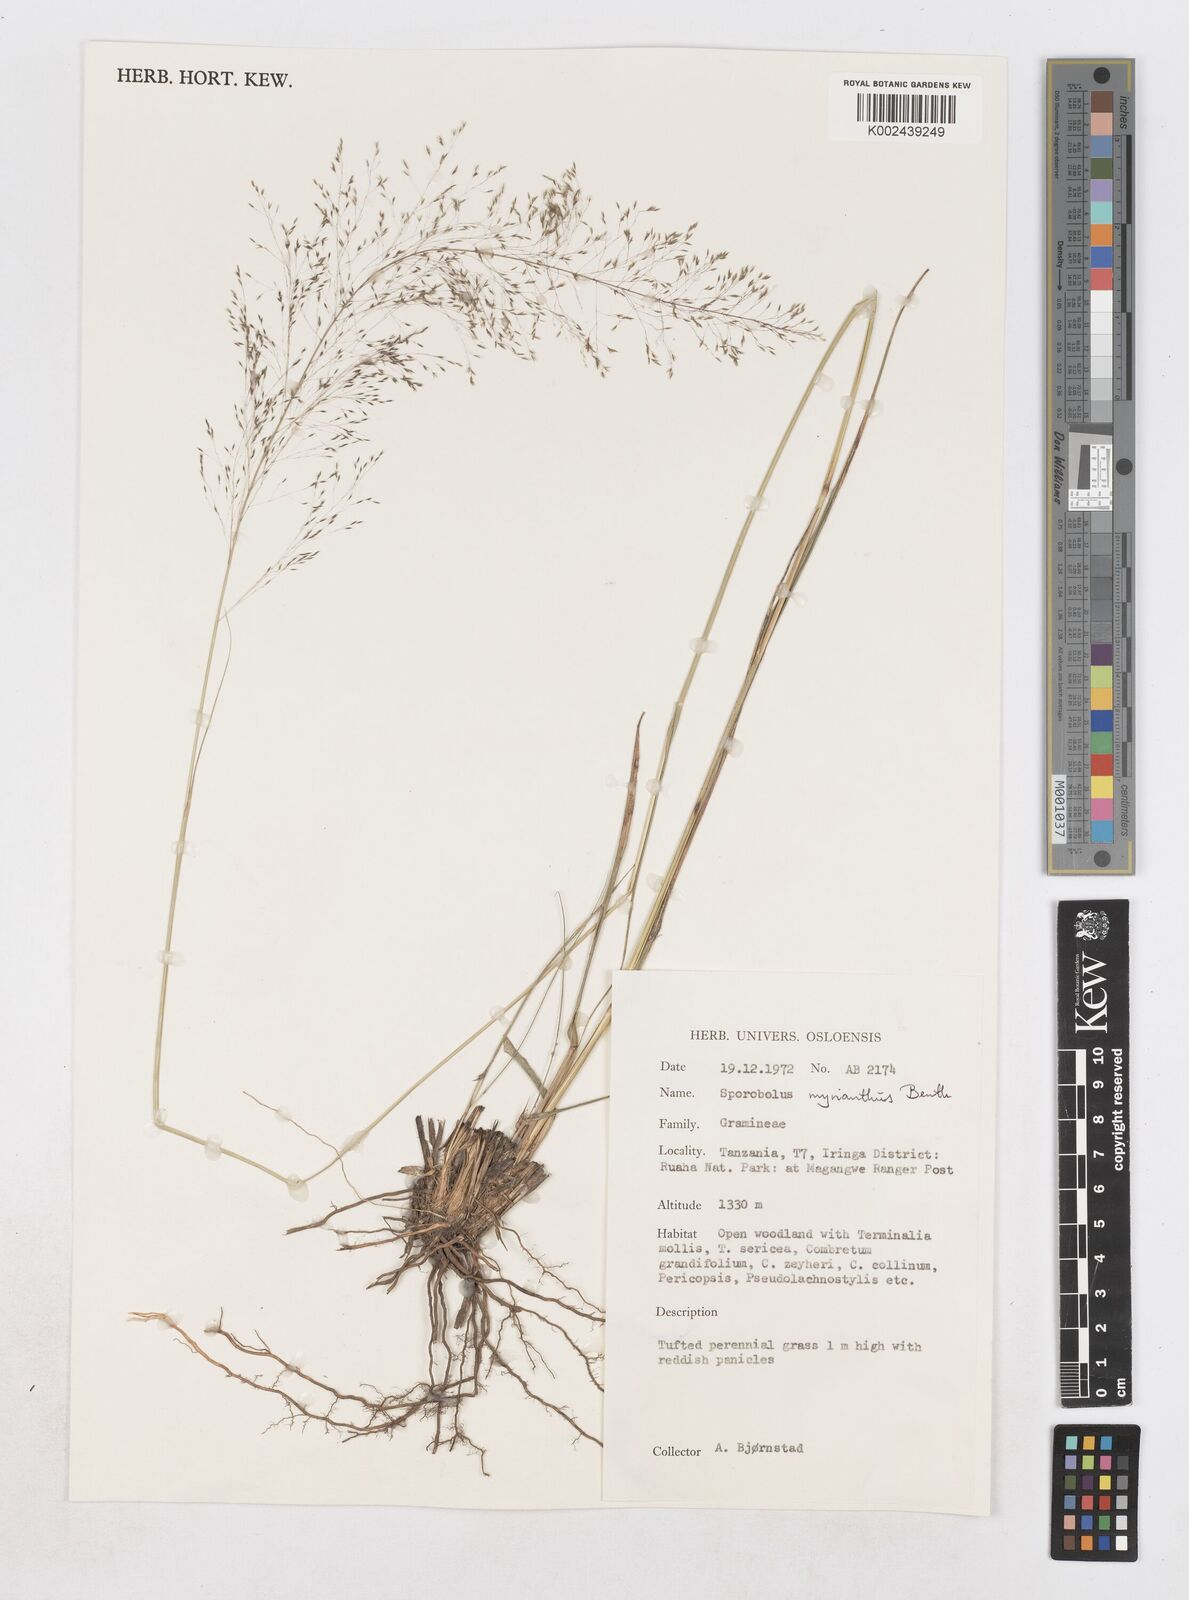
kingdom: Plantae
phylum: Tracheophyta
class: Liliopsida
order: Poales
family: Poaceae
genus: Sporobolus
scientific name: Sporobolus myrianthus
